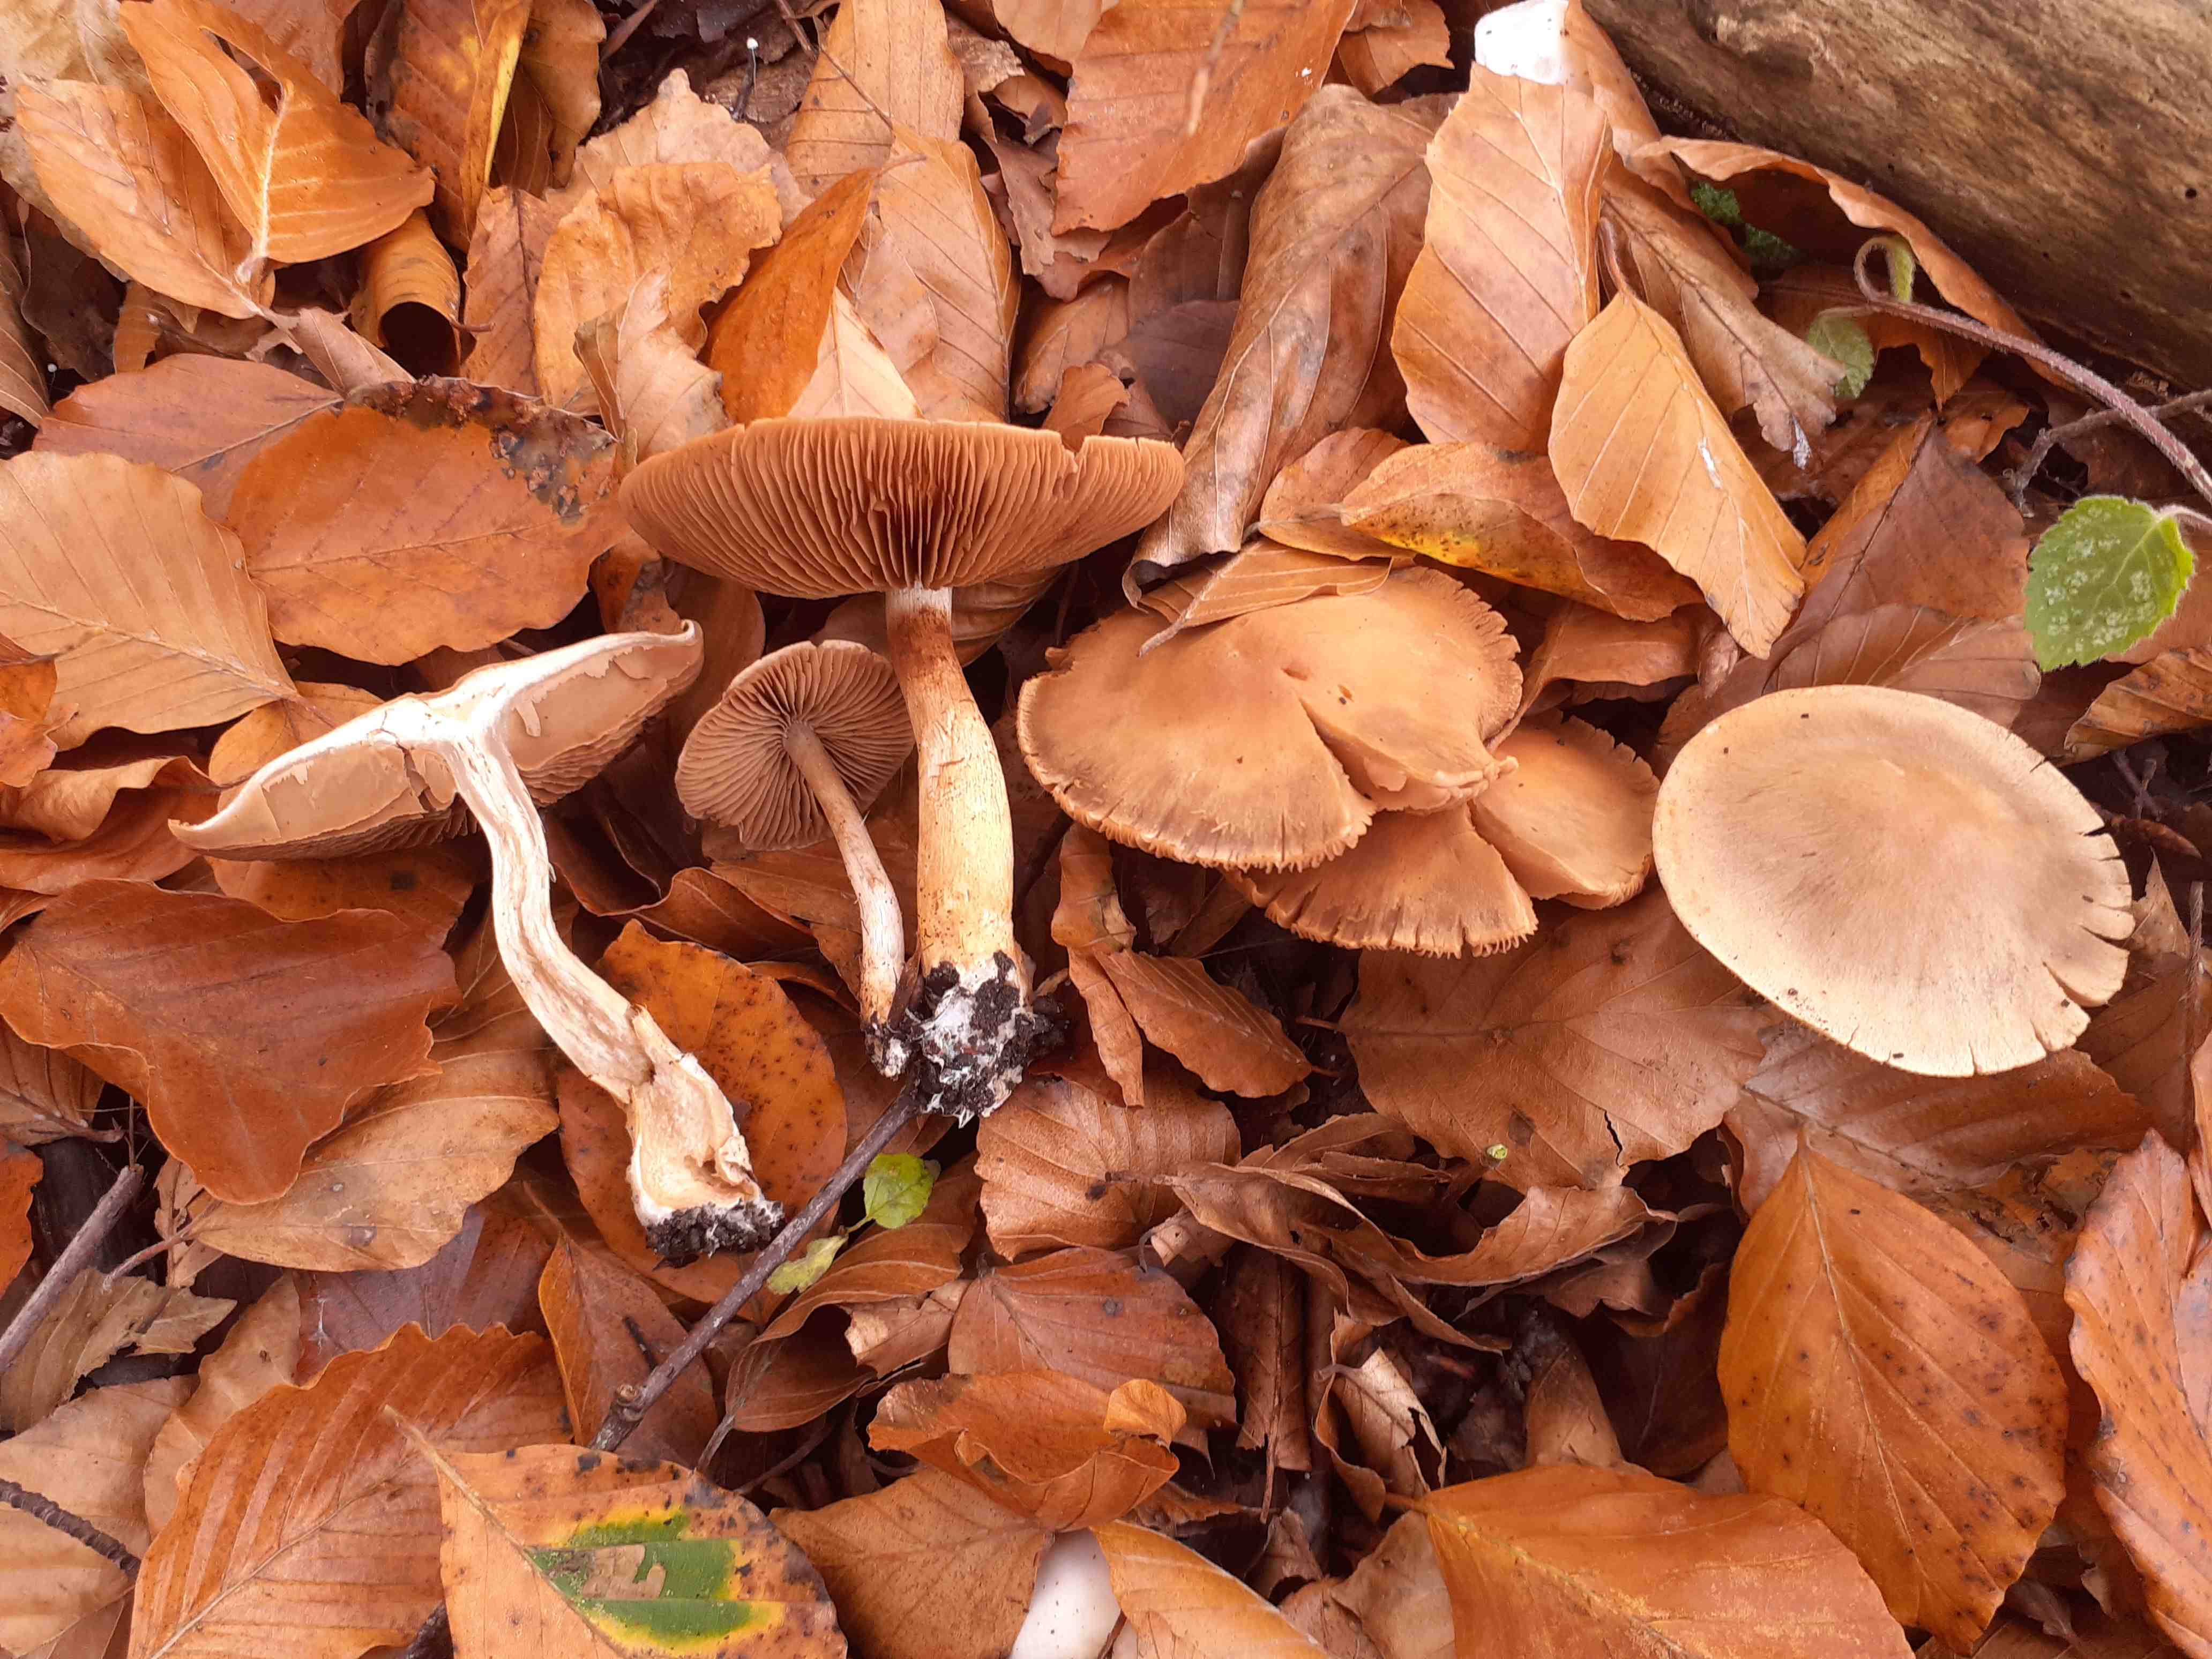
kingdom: Fungi
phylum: Basidiomycota
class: Agaricomycetes
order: Agaricales
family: Cortinariaceae
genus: Cortinarius
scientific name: Cortinarius pelerinii
